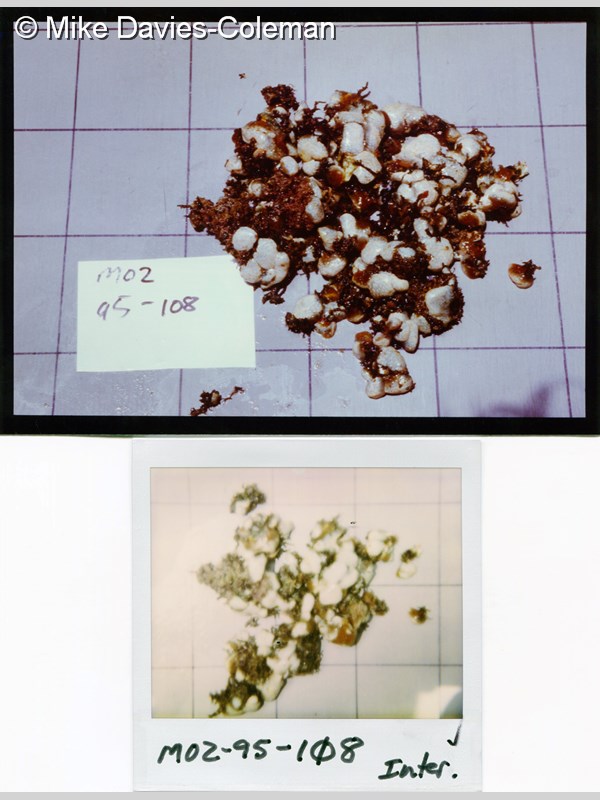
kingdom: Animalia
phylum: Chordata
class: Ascidiacea
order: Aplousobranchia
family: Pseudodistomidae
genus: Pseudodistoma
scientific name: Pseudodistoma
